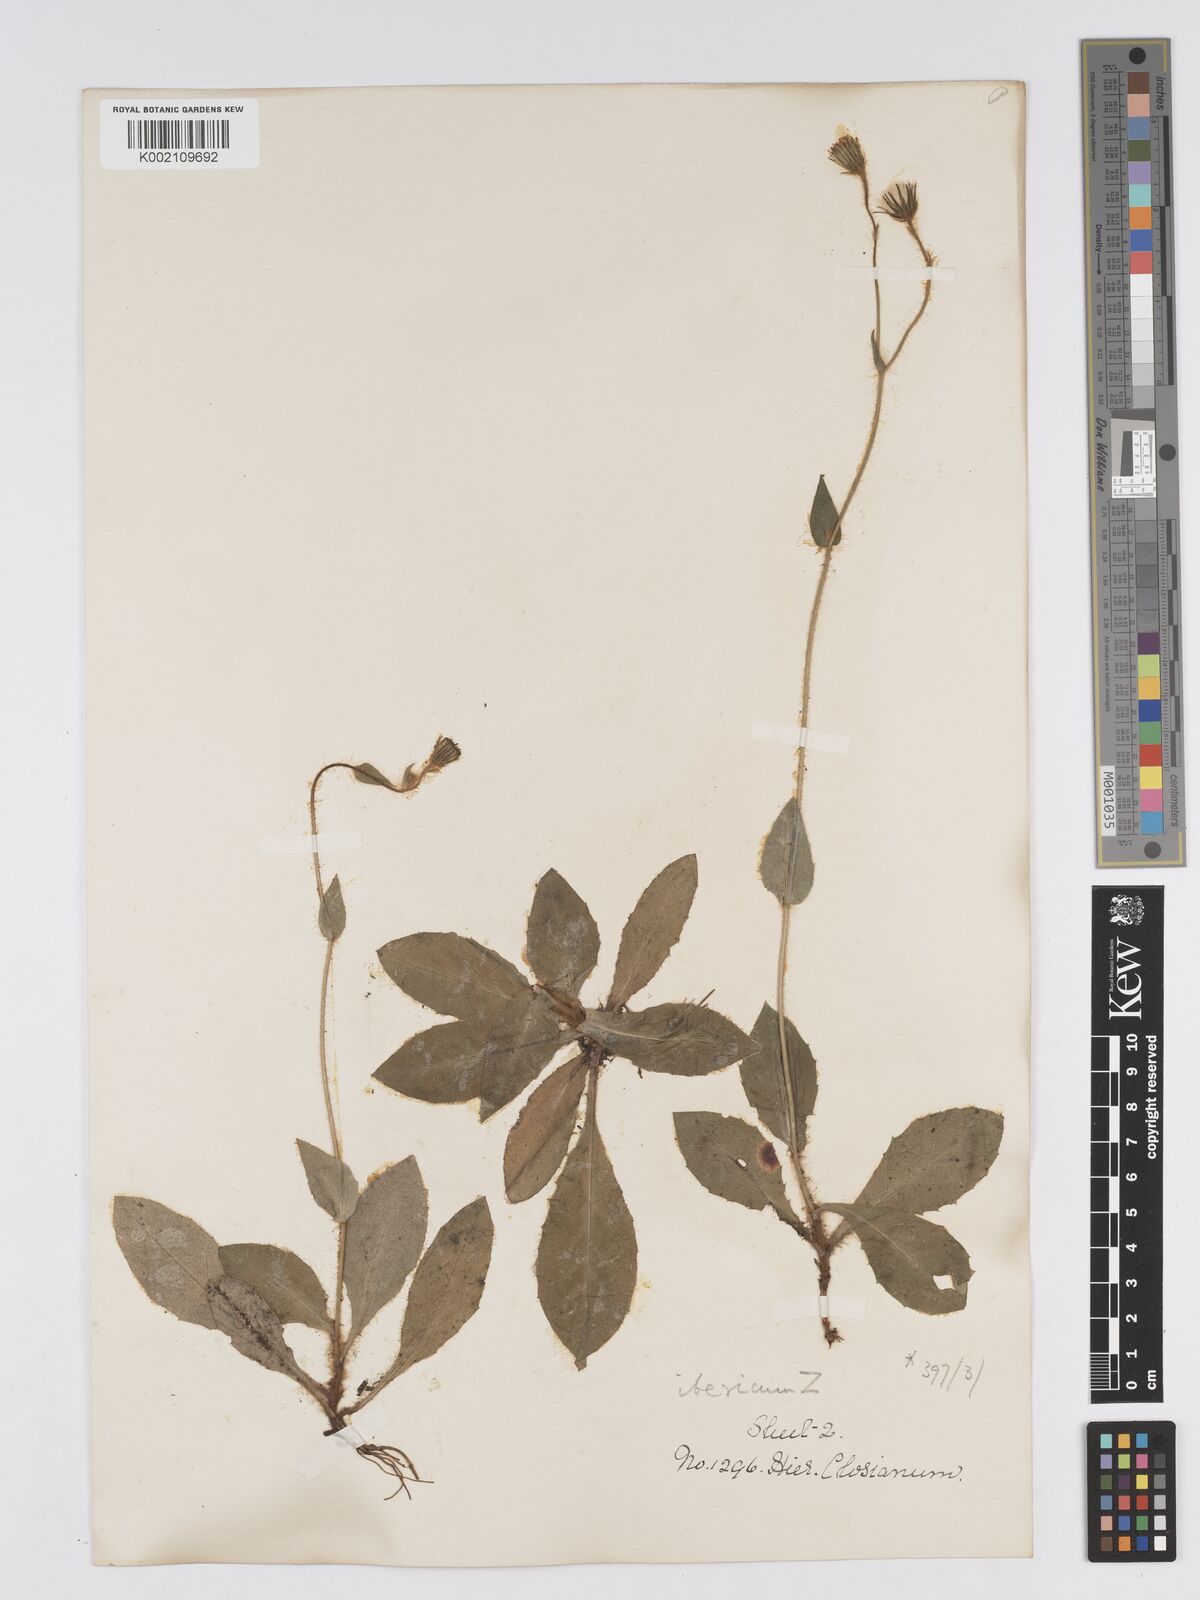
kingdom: Plantae
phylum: Tracheophyta
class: Magnoliopsida
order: Asterales
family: Asteraceae
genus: Hieracium
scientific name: Hieracium nobile
